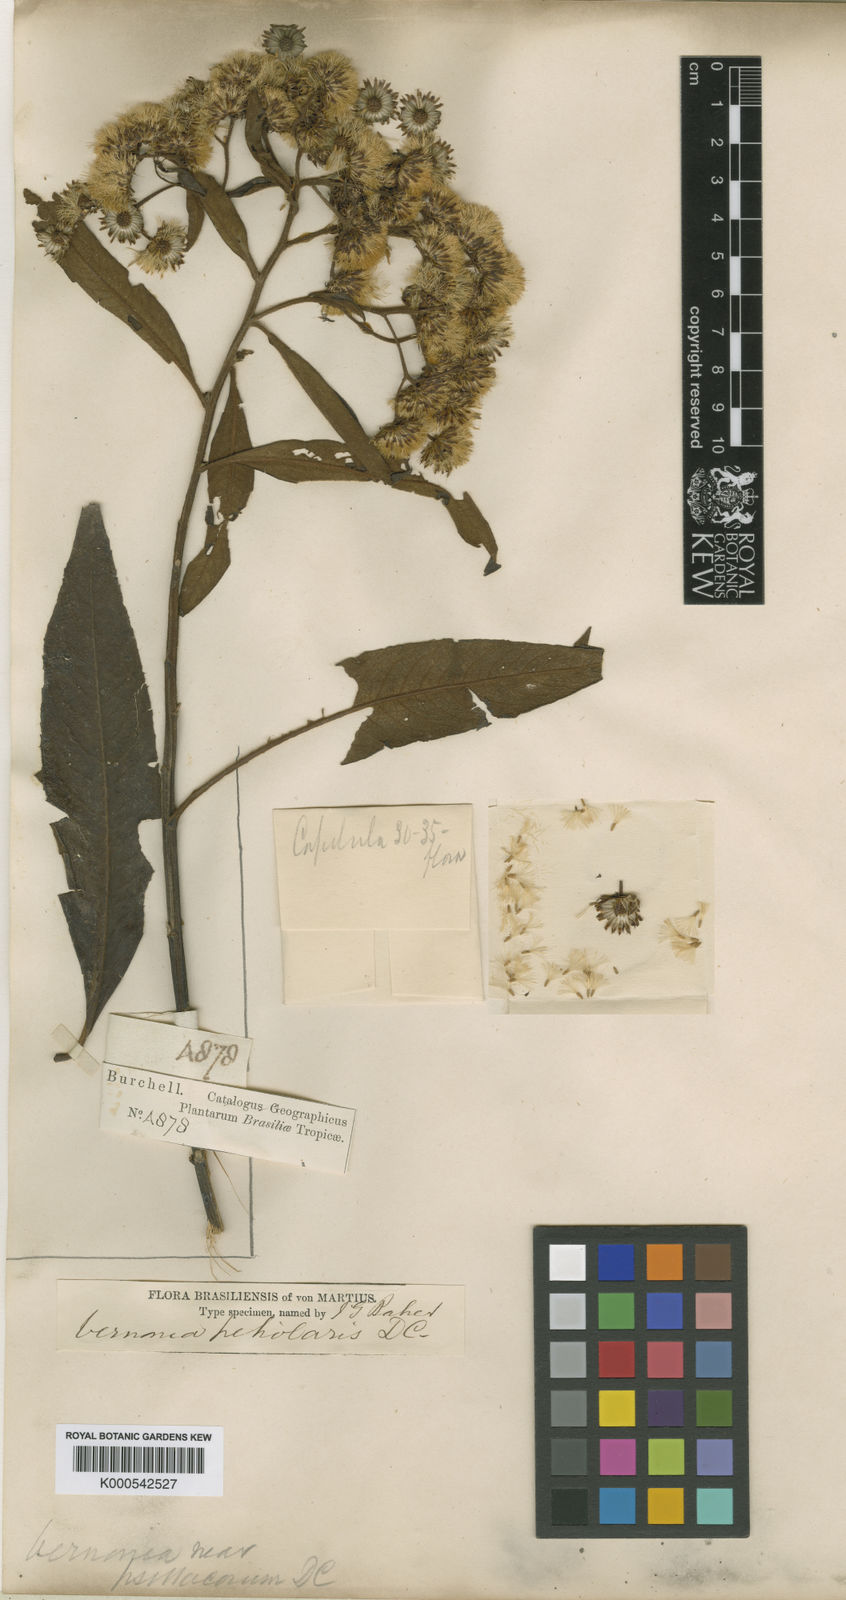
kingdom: Plantae
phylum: Tracheophyta
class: Magnoliopsida
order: Asterales
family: Asteraceae
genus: Vernonanthura
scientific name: Vernonanthura petiolaris
